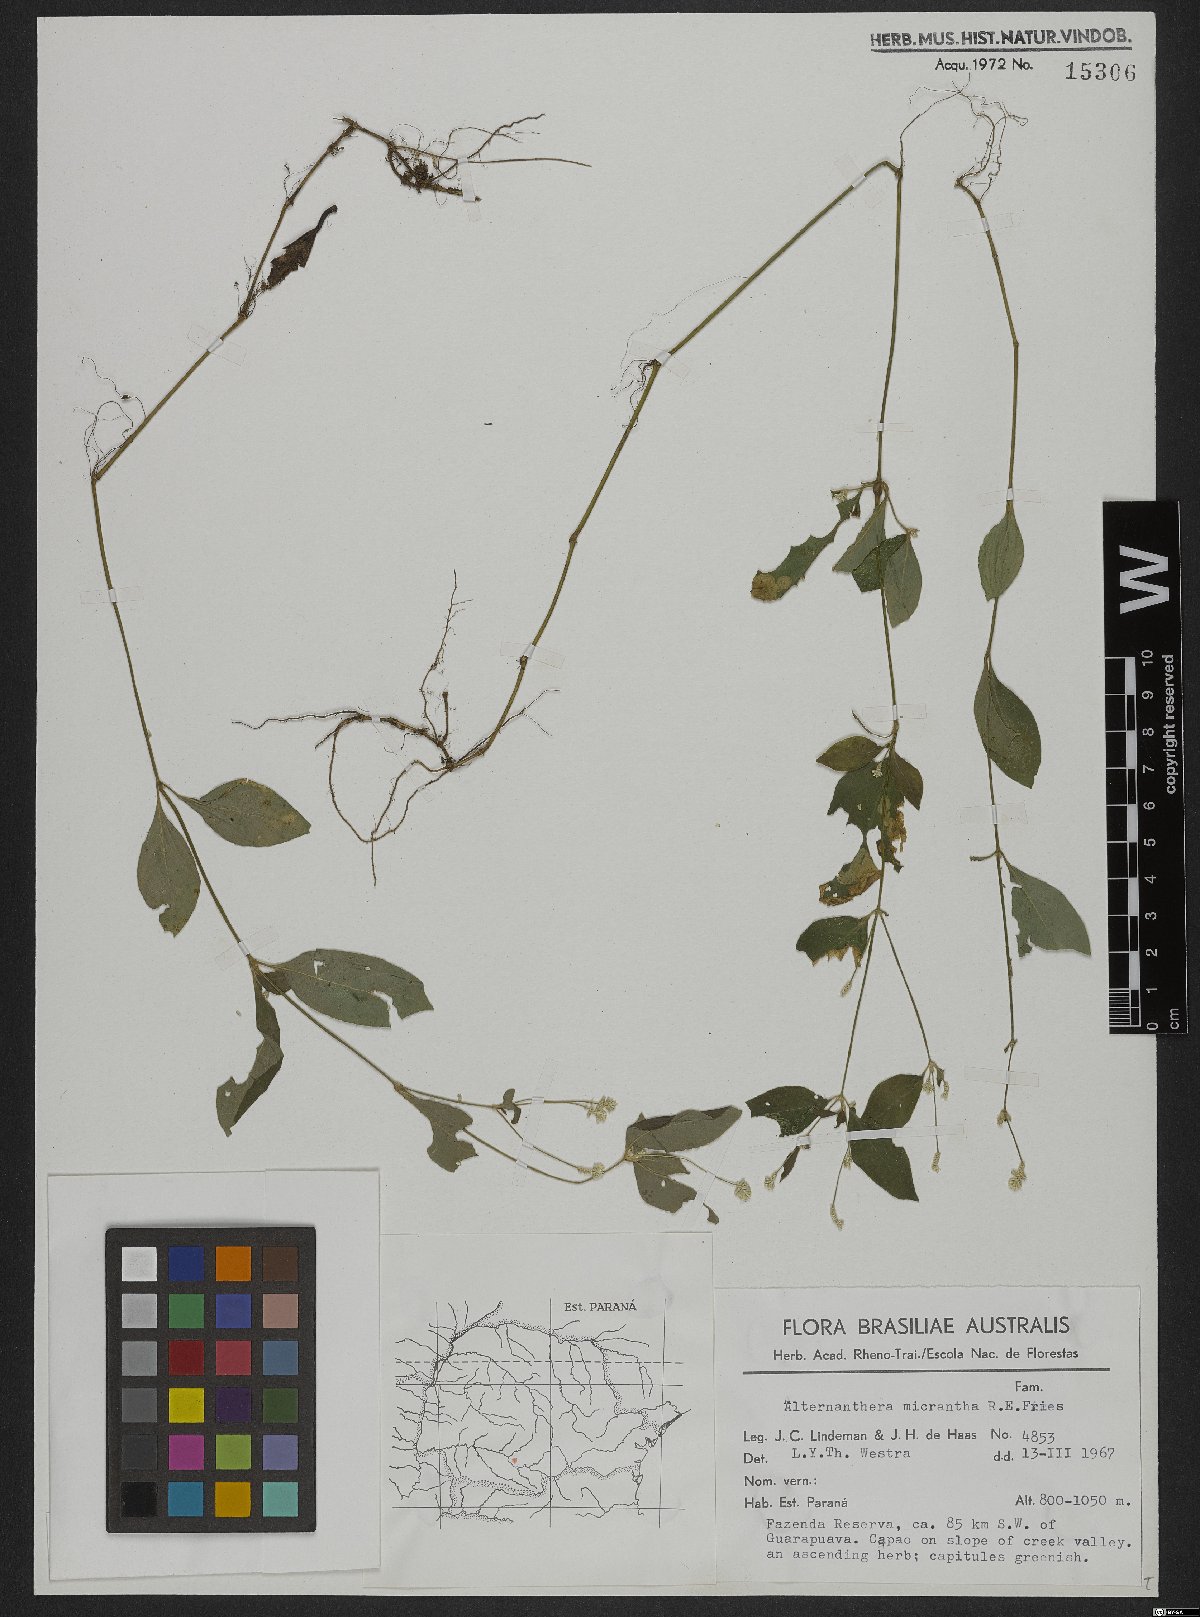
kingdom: Plantae
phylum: Tracheophyta
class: Magnoliopsida
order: Caryophyllales
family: Amaranthaceae
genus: Alternanthera
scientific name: Alternanthera micrantha
